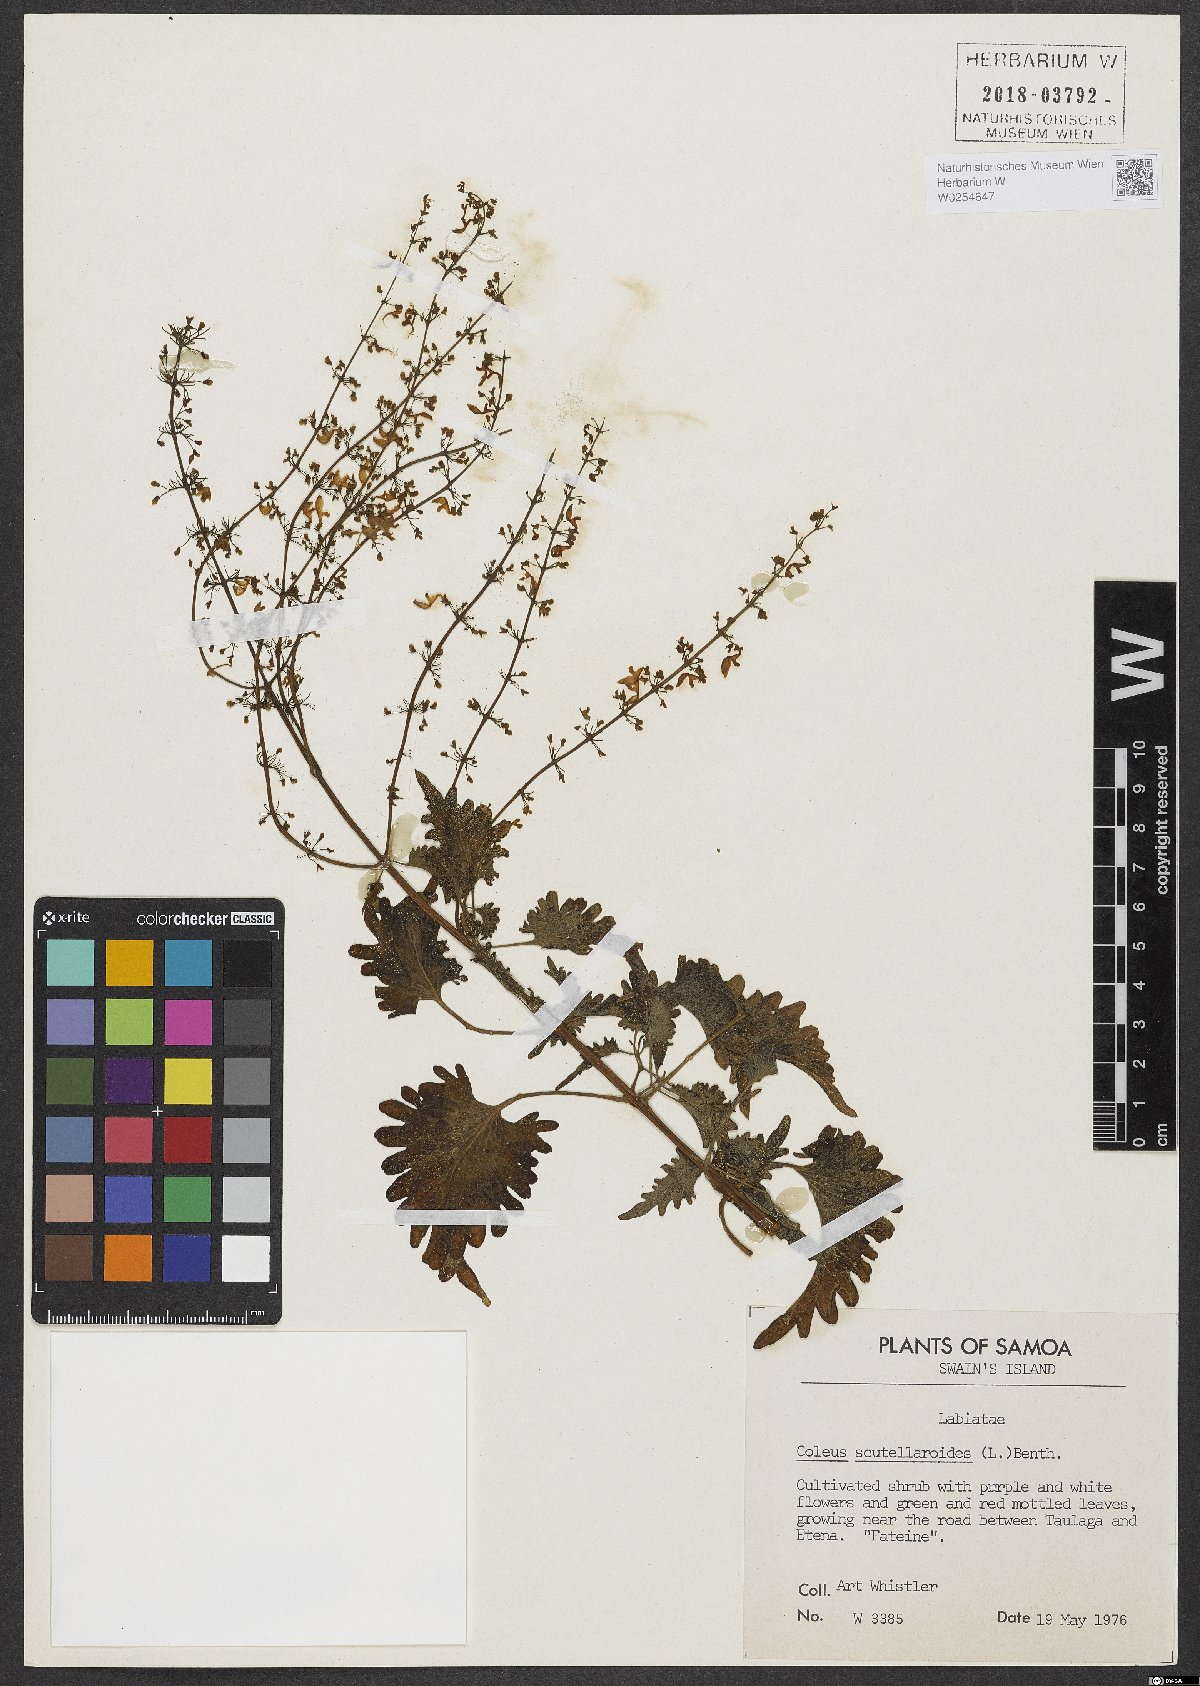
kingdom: Plantae
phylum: Tracheophyta
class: Magnoliopsida
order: Lamiales
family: Lamiaceae
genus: Coleus
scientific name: Coleus scutellarioides
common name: Coleus
